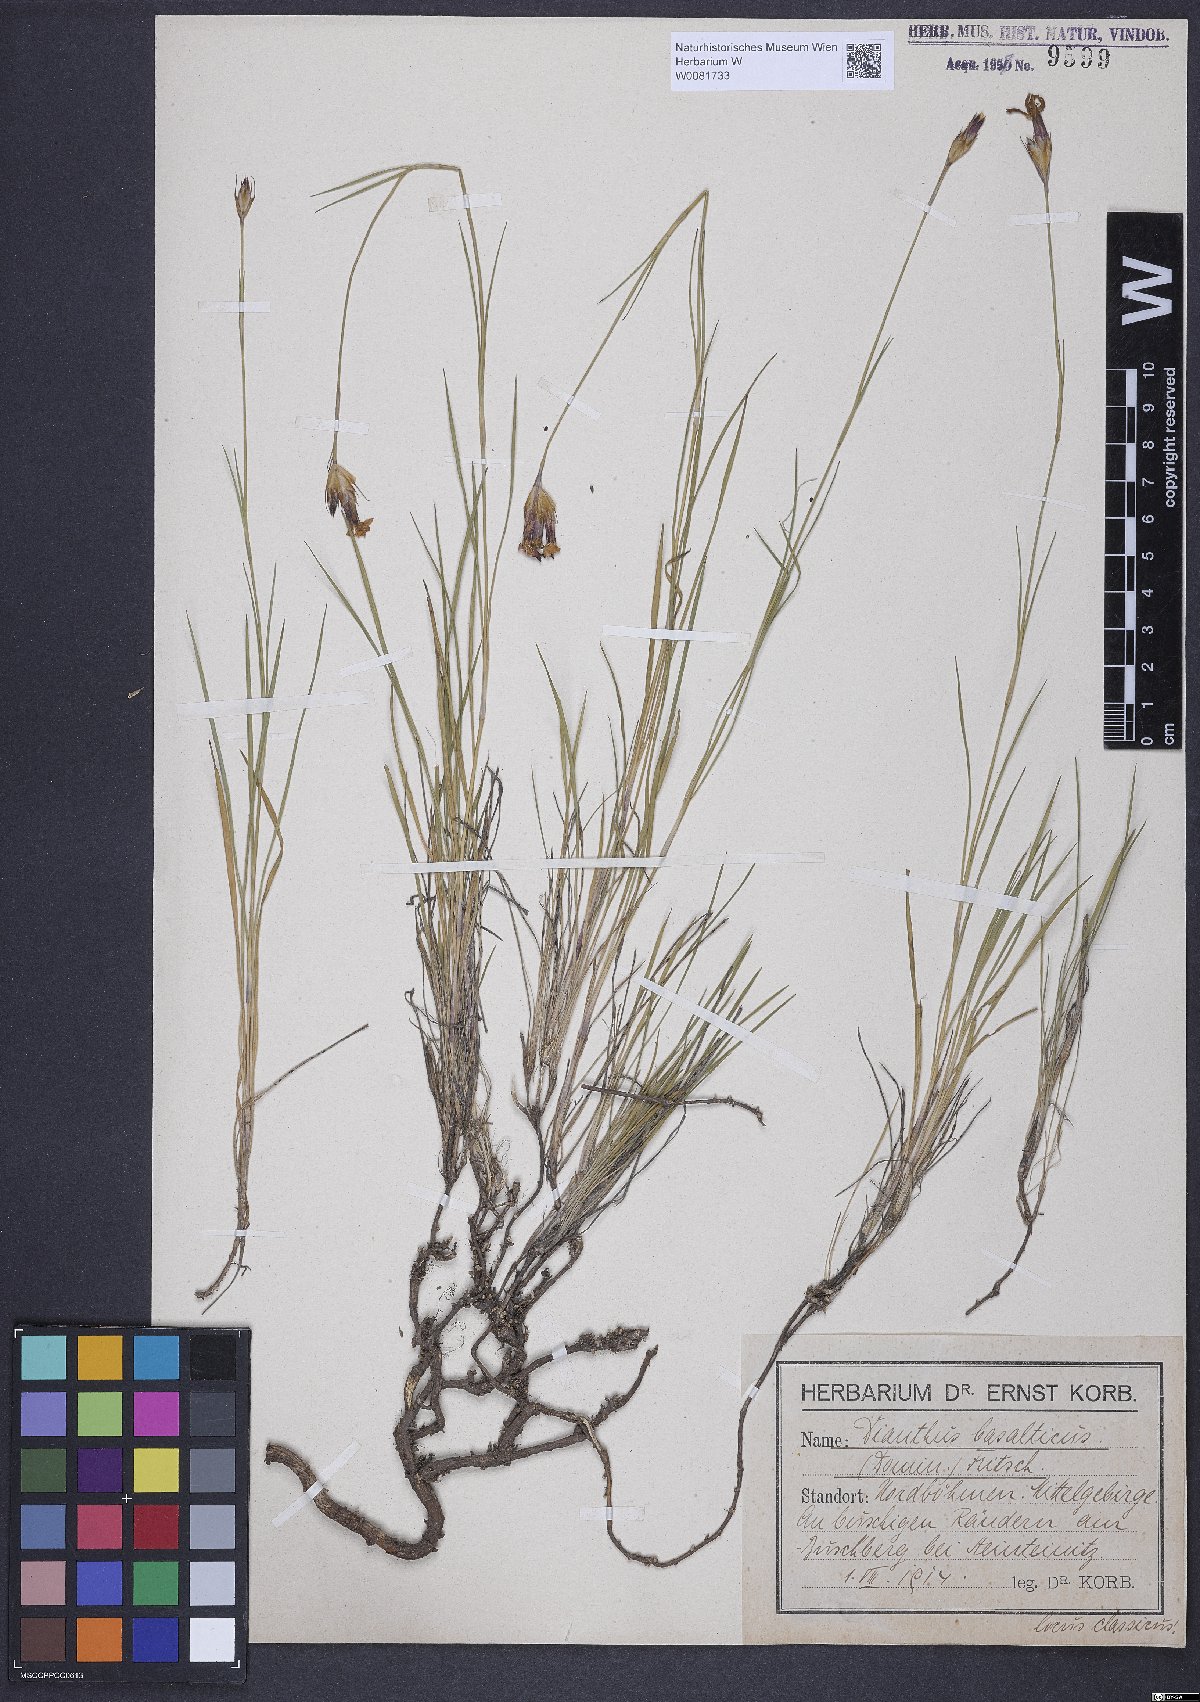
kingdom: Plantae
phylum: Tracheophyta
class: Magnoliopsida
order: Caryophyllales
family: Caryophyllaceae
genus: Dianthus
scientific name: Dianthus carthusianorum
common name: Carthusian pink
